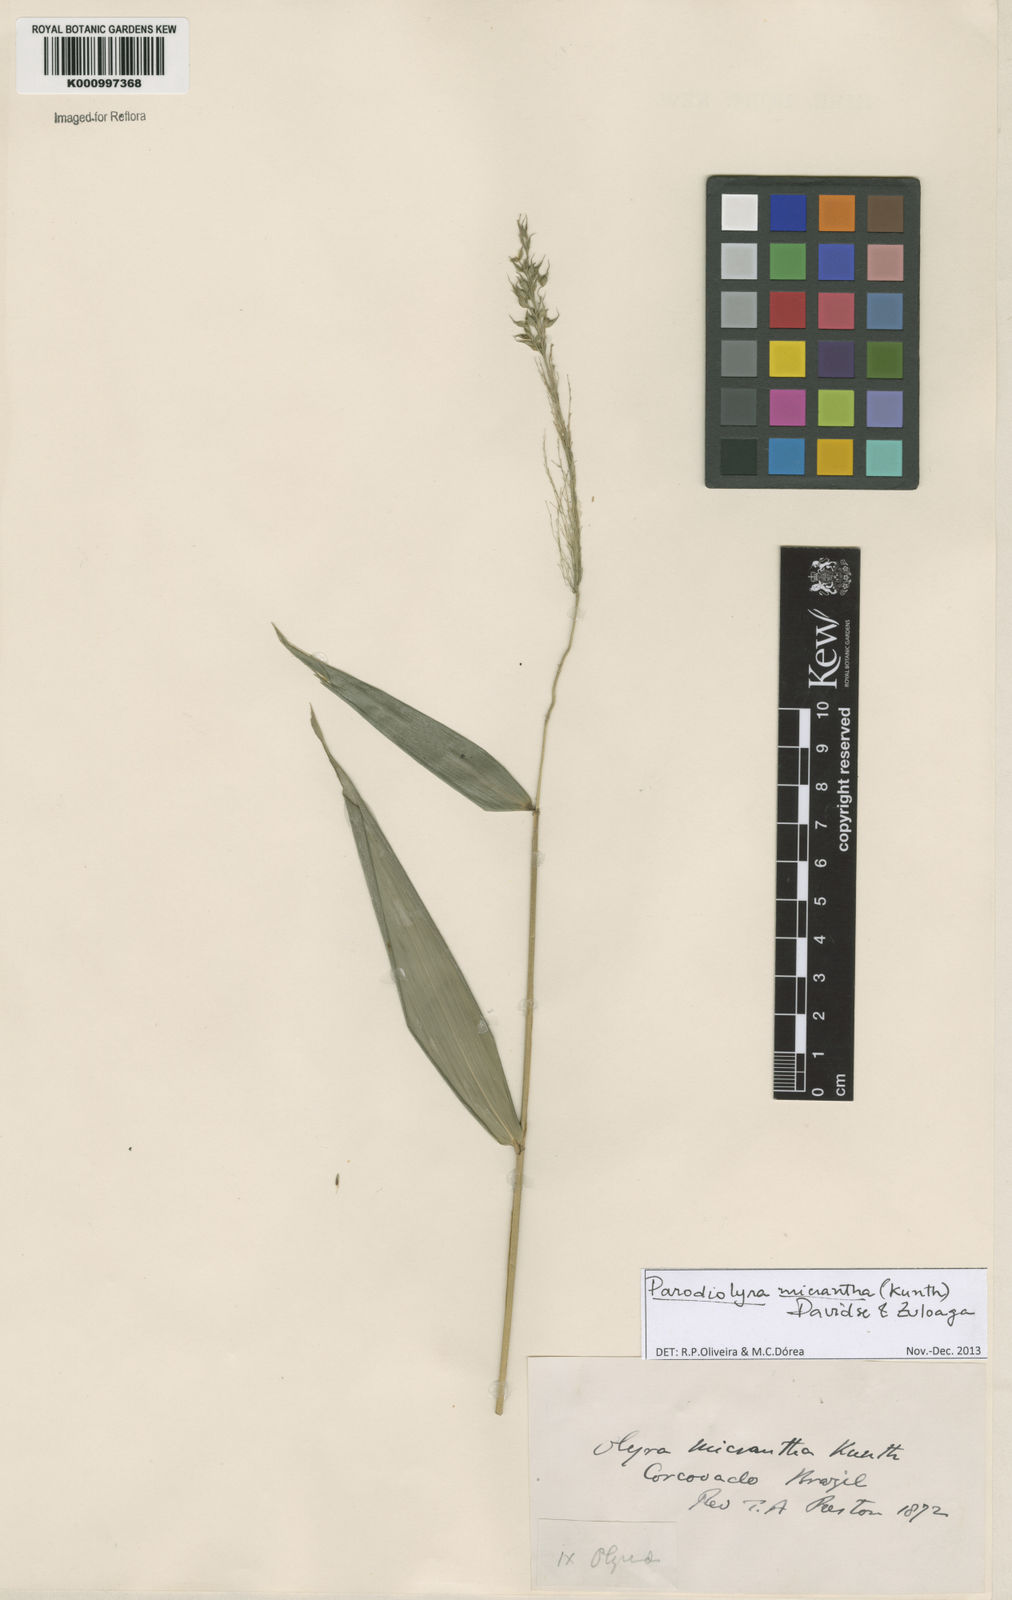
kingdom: Plantae
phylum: Tracheophyta
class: Liliopsida
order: Poales
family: Poaceae
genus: Taquara
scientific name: Taquara micrantha
